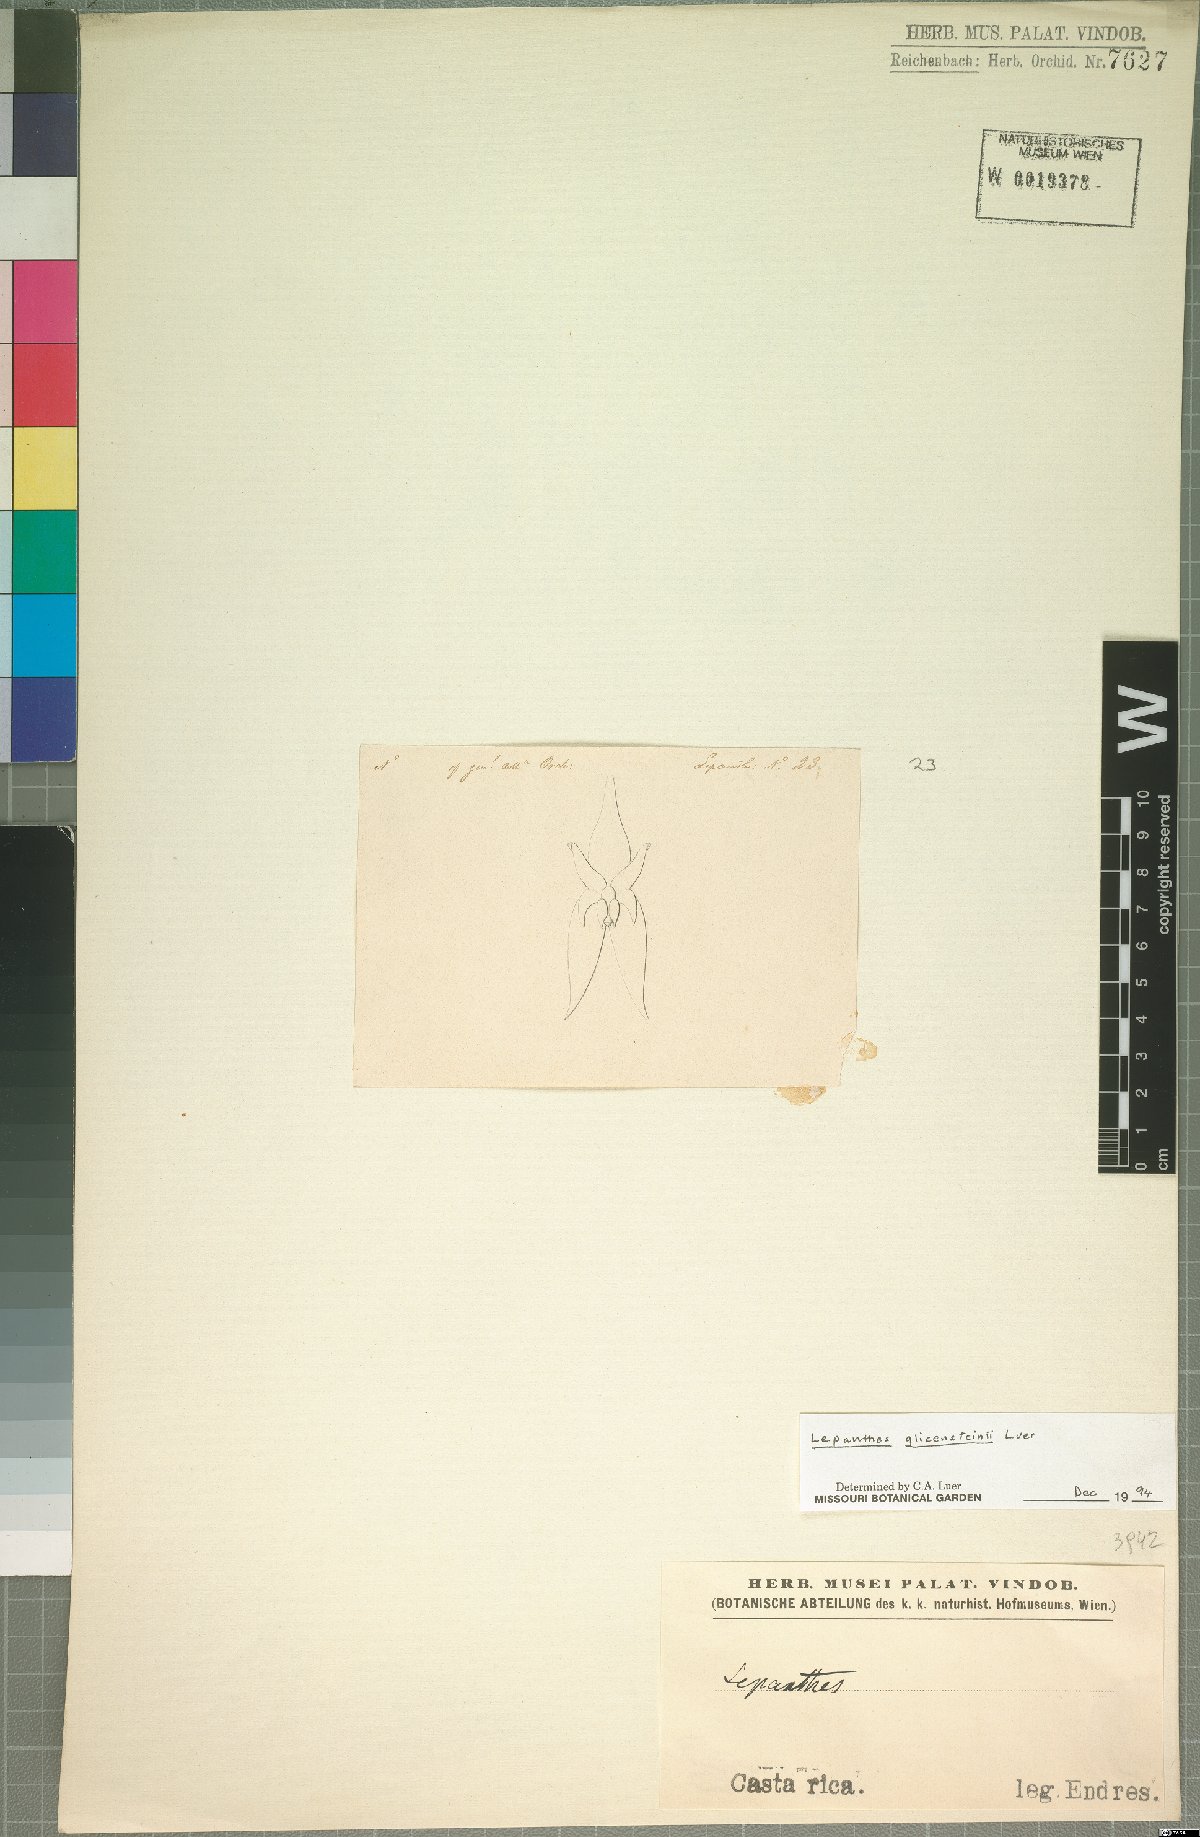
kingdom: Plantae
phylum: Tracheophyta
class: Liliopsida
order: Asparagales
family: Orchidaceae
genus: Lepanthes
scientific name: Lepanthes glicensteinii
